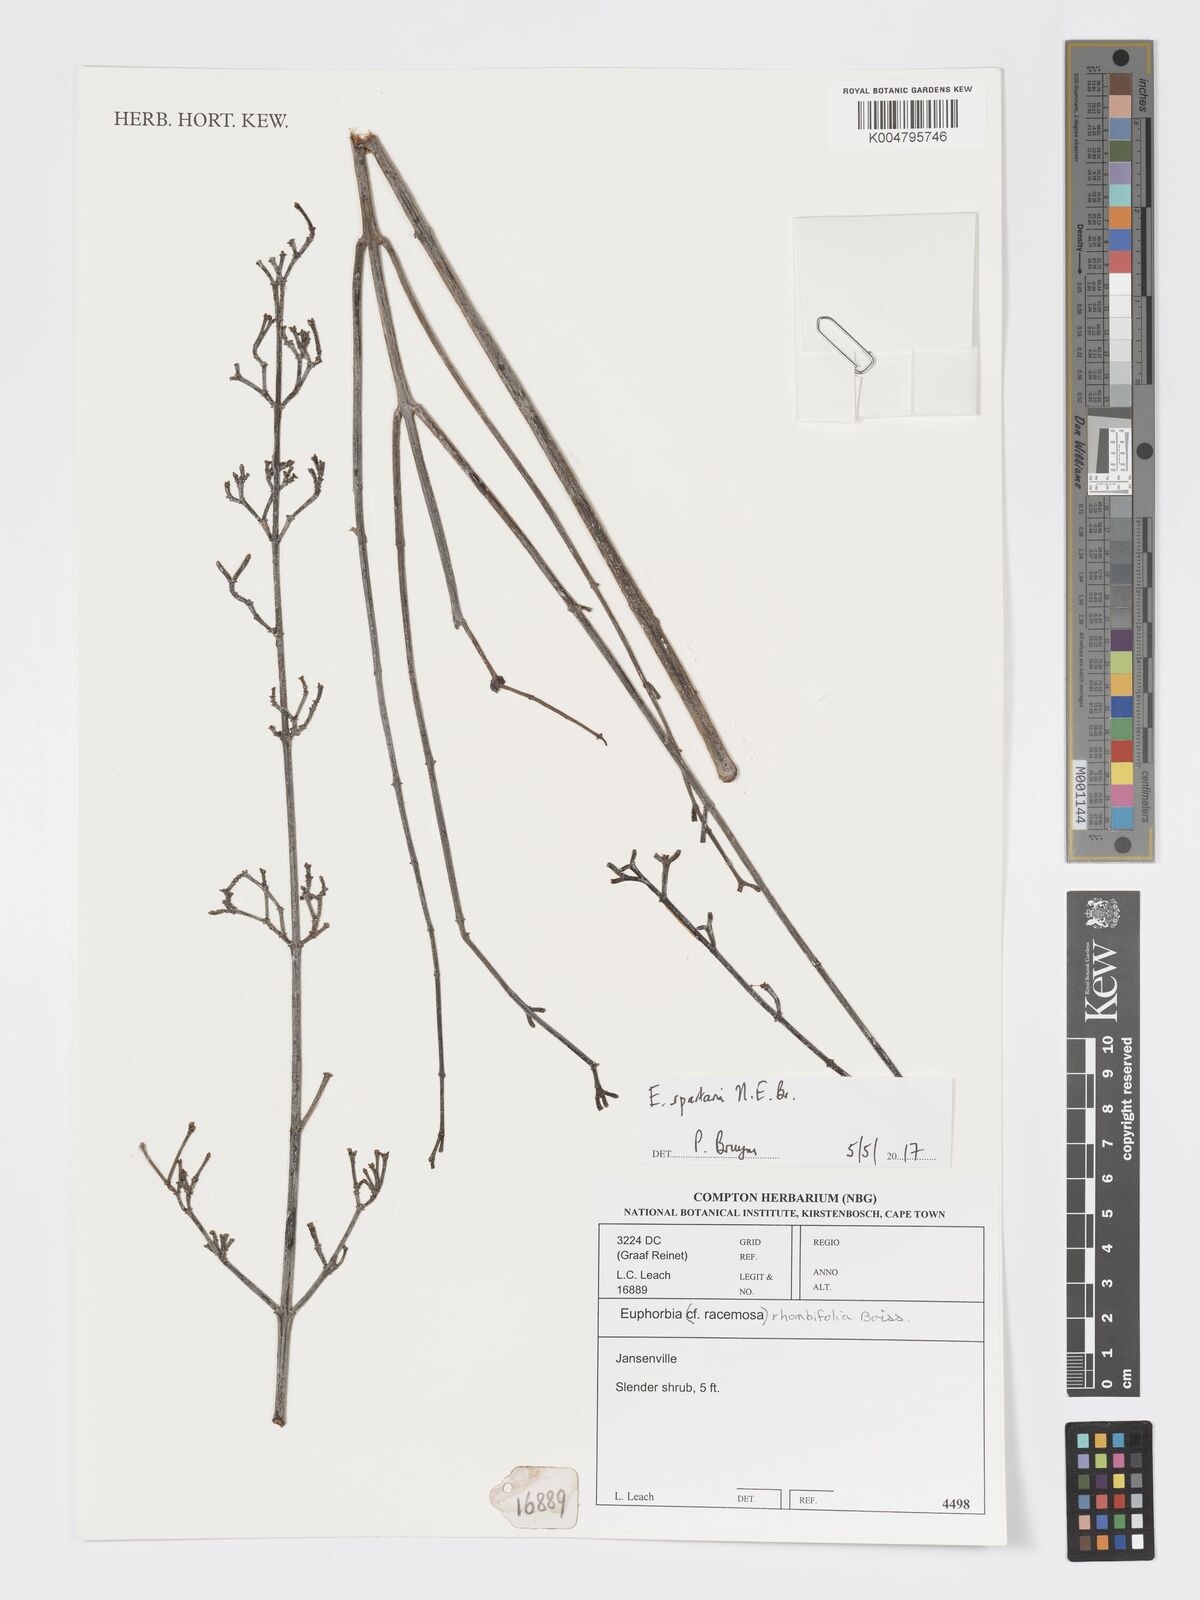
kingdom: Plantae
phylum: Tracheophyta
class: Magnoliopsida
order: Malpighiales
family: Euphorbiaceae
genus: Euphorbia
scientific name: Euphorbia spartaria
